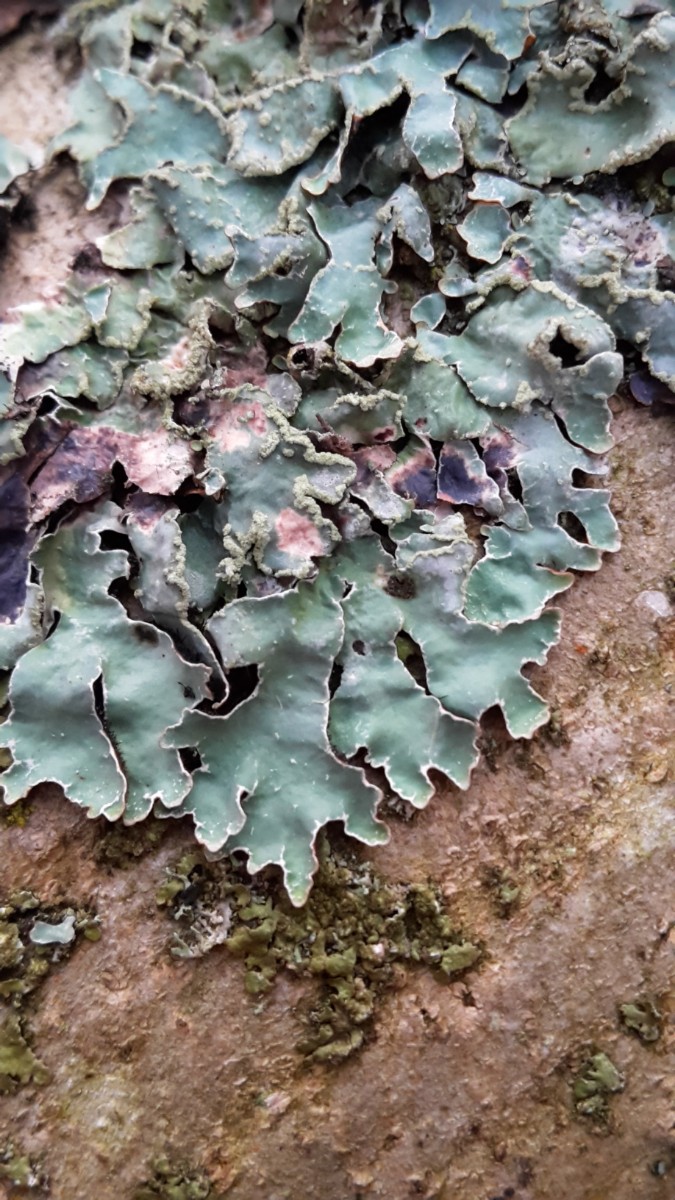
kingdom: Fungi
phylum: Ascomycota
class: Lecanoromycetes
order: Lecanorales
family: Parmeliaceae
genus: Parmelia
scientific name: Parmelia sulcata
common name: rynket skållav
